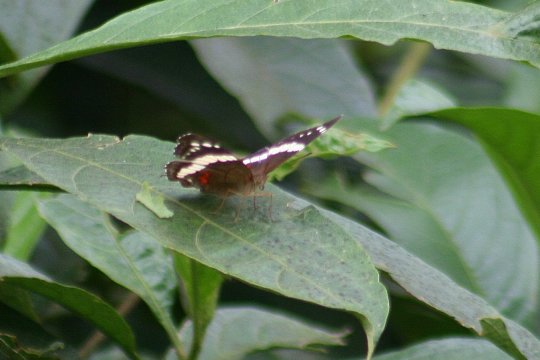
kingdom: Animalia
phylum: Arthropoda
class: Insecta
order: Lepidoptera
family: Nymphalidae
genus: Anartia
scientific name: Anartia fatima
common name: Banded Peacock
